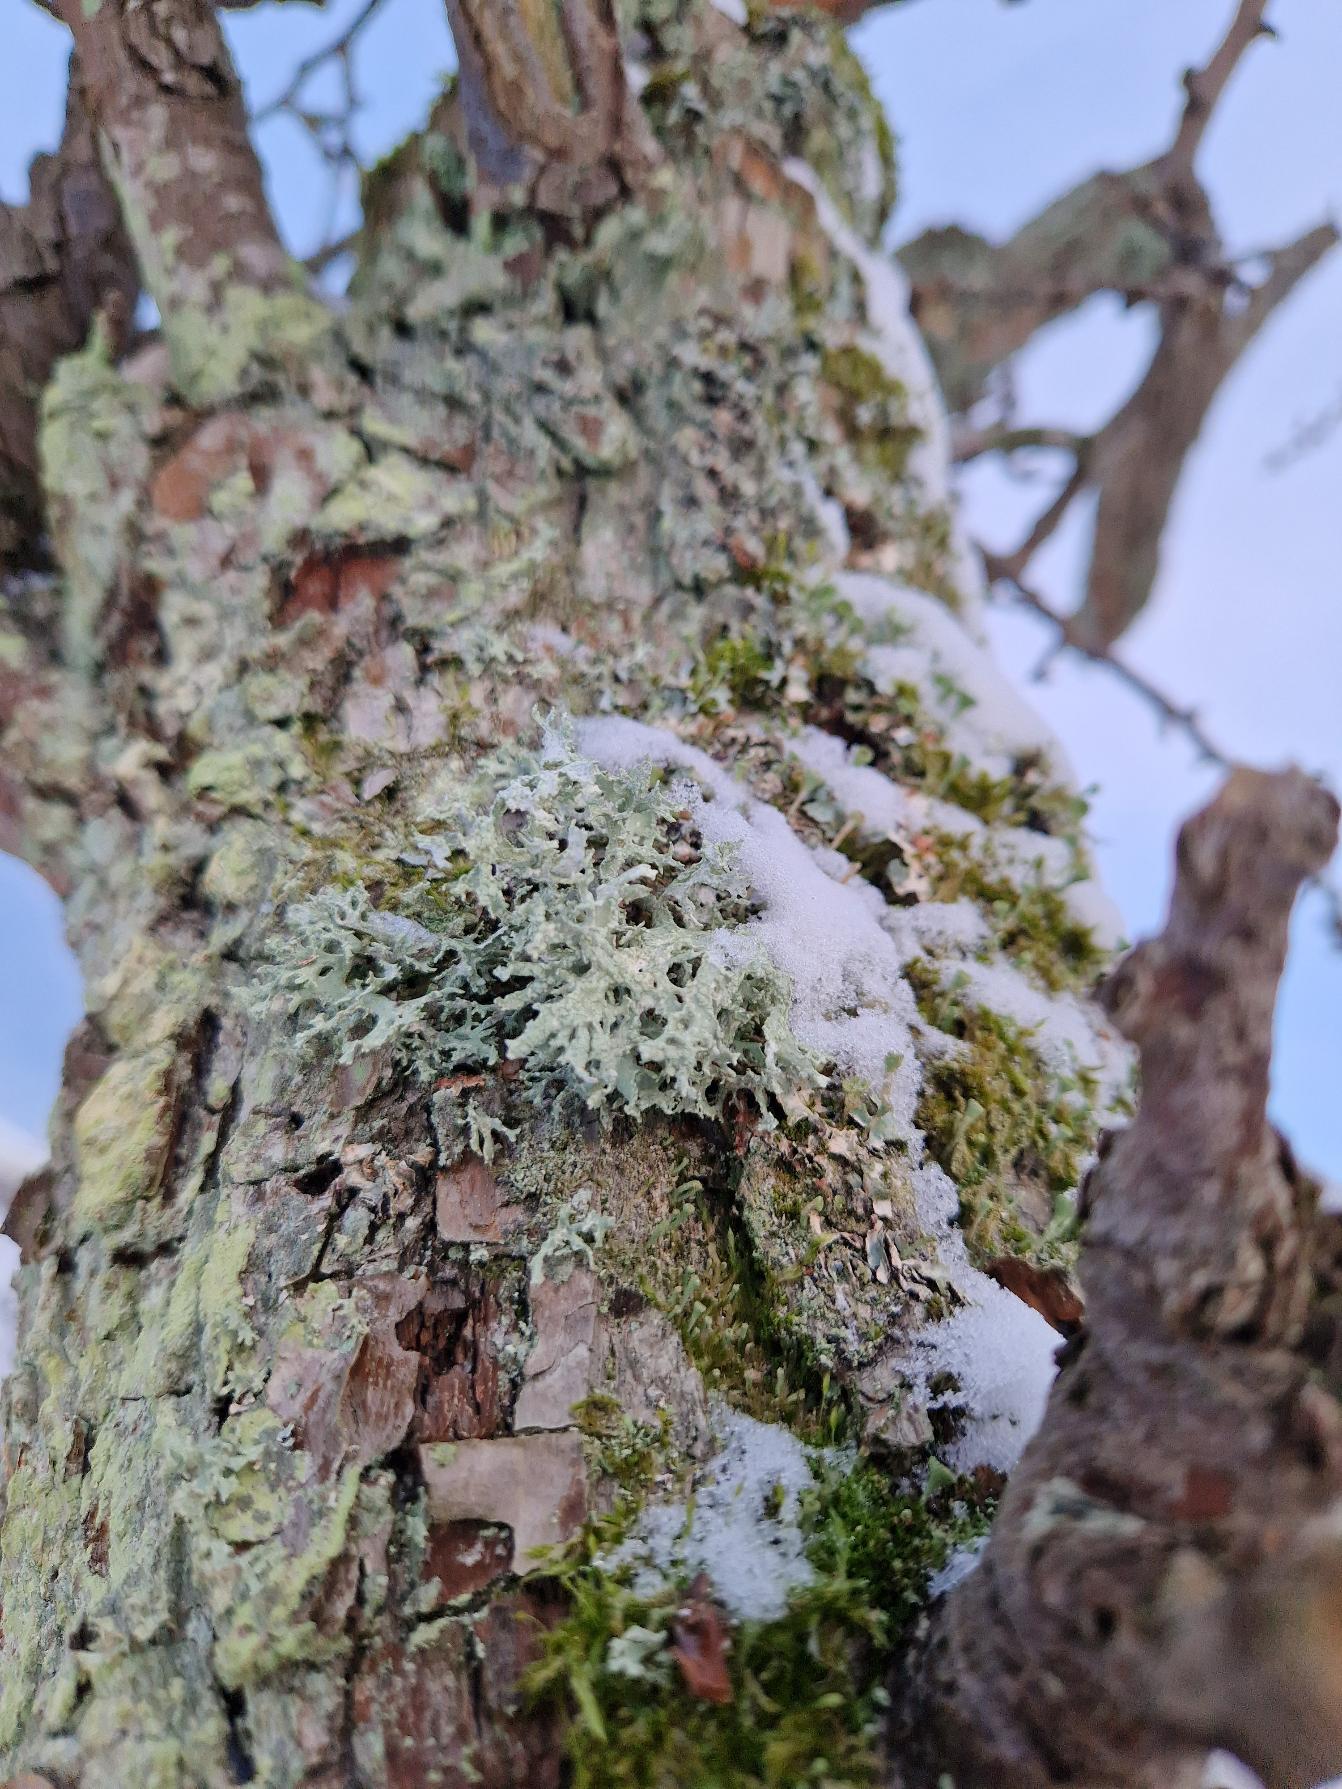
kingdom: Fungi
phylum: Ascomycota
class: Lecanoromycetes
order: Lecanorales
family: Parmeliaceae
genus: Evernia
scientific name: Evernia prunastri
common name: Almindelig slåenlav
